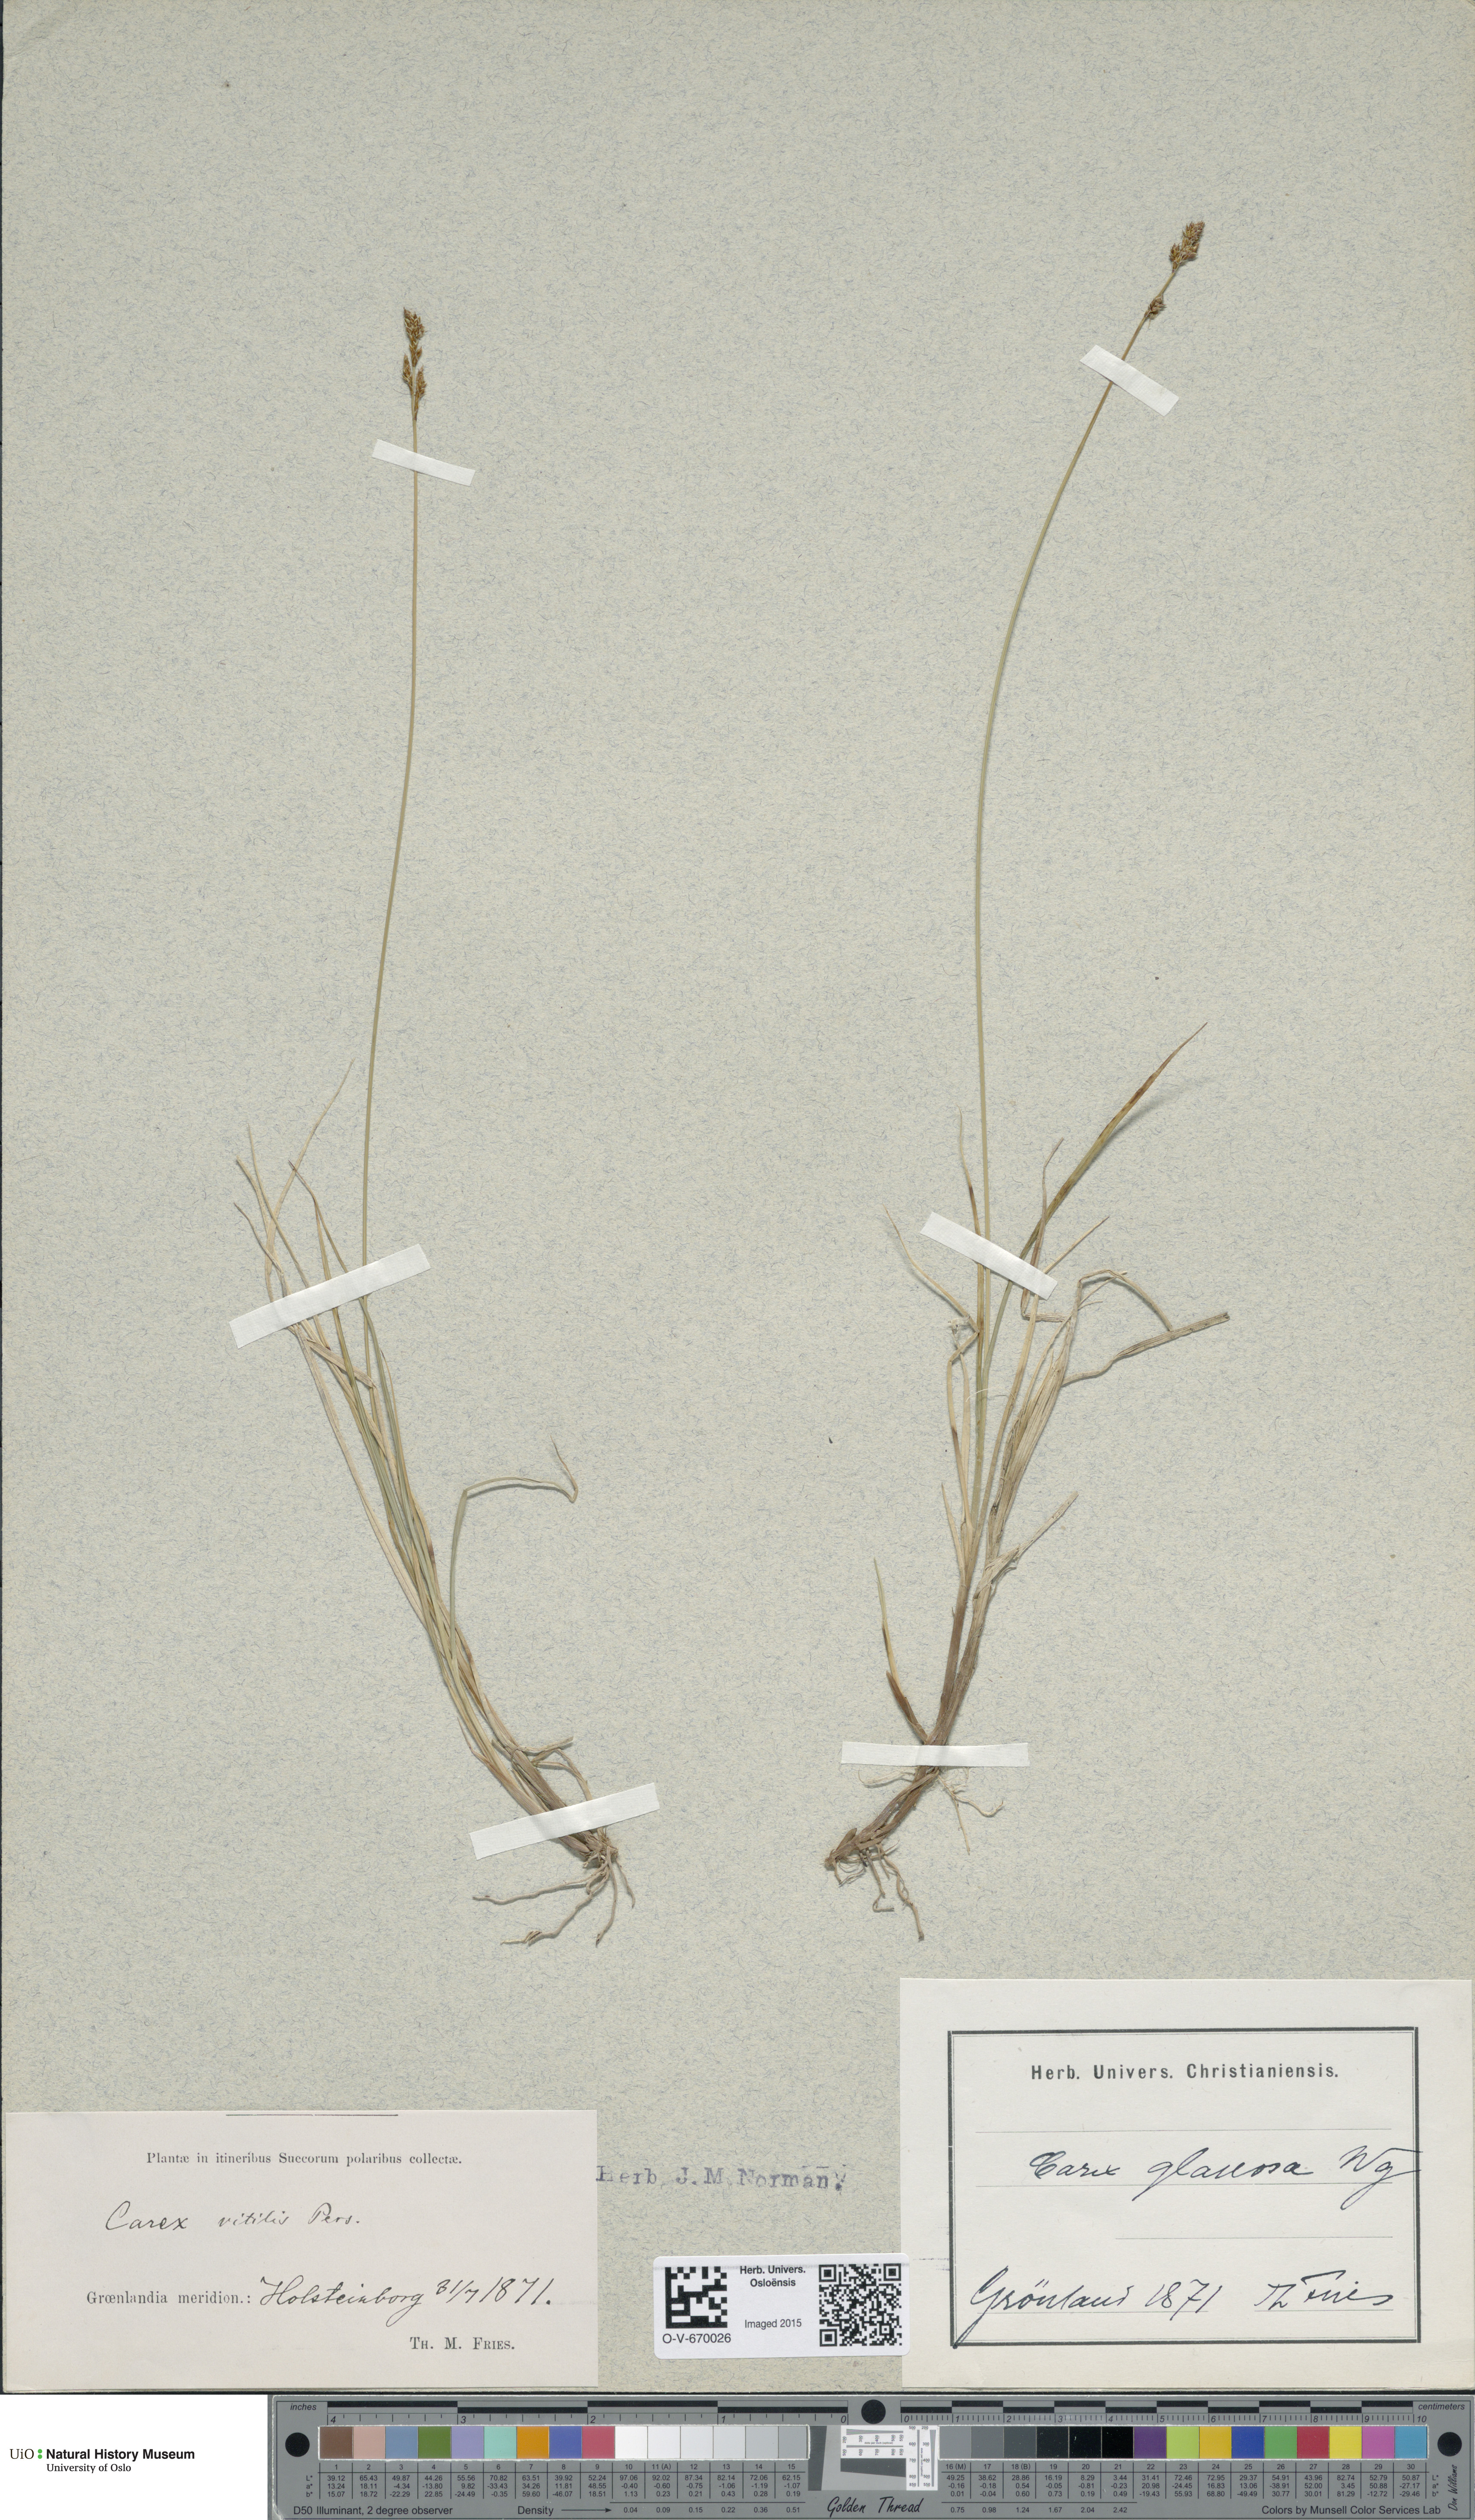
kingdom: Plantae
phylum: Tracheophyta
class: Liliopsida
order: Poales
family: Cyperaceae
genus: Carex
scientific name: Carex glareosa
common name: Clustered sedge
